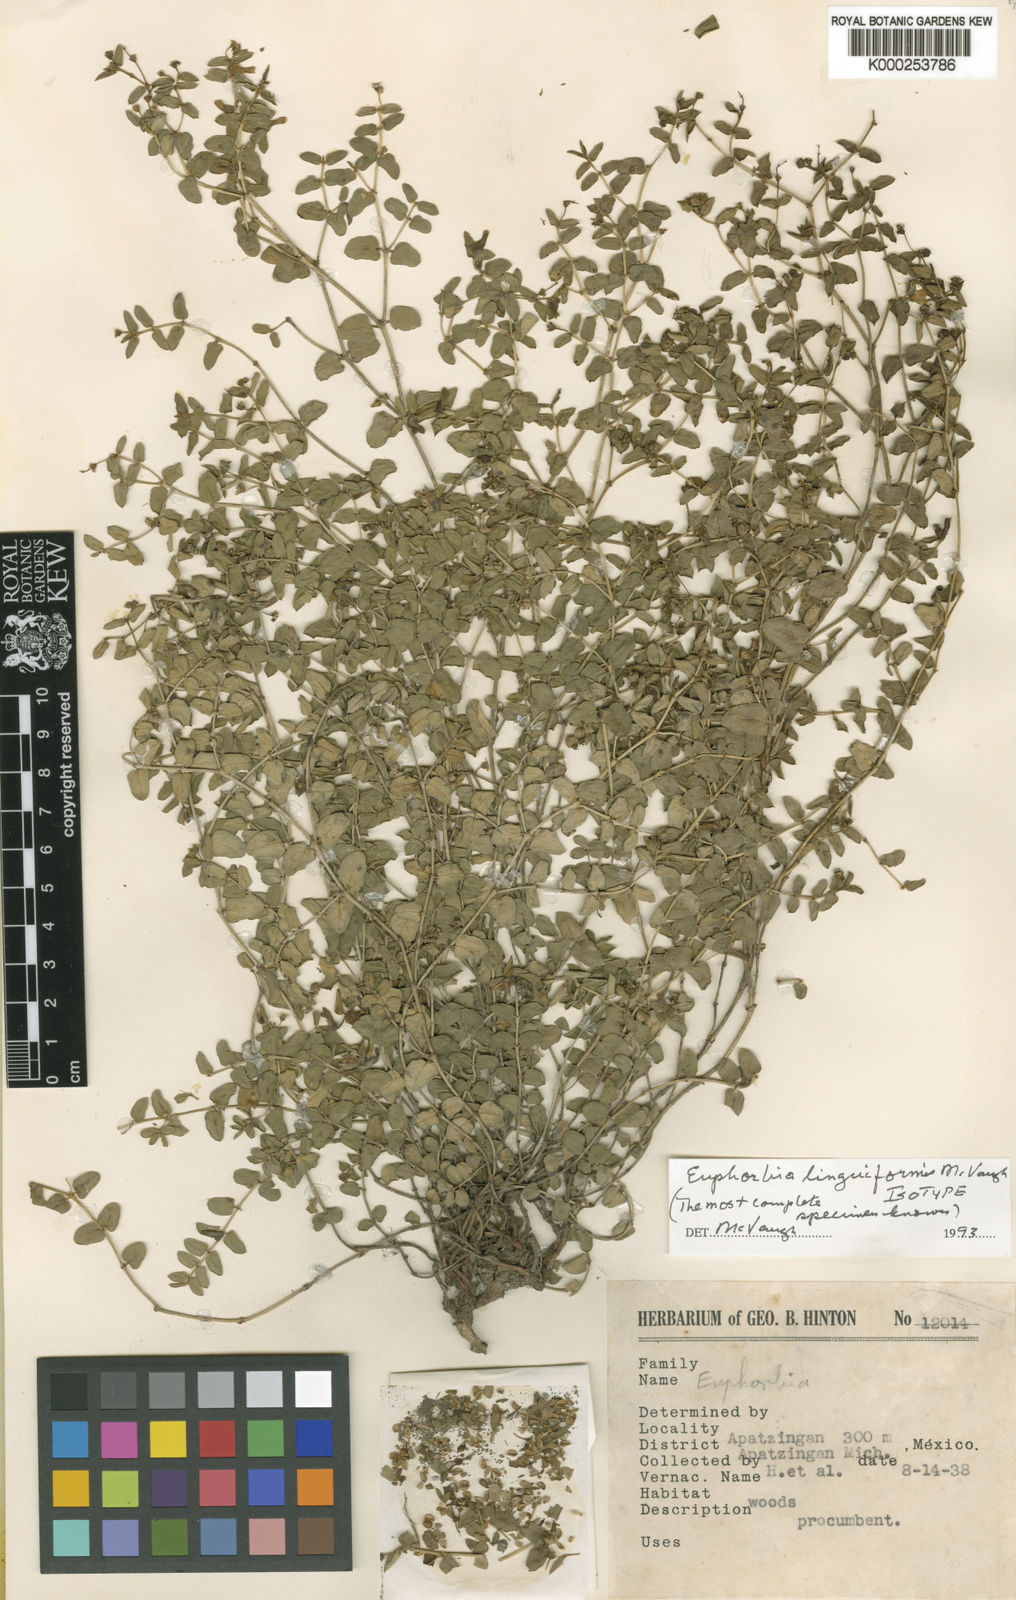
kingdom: Plantae
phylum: Tracheophyta
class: Magnoliopsida
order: Malpighiales
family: Euphorbiaceae
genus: Euphorbia
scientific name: Euphorbia linguiformis
